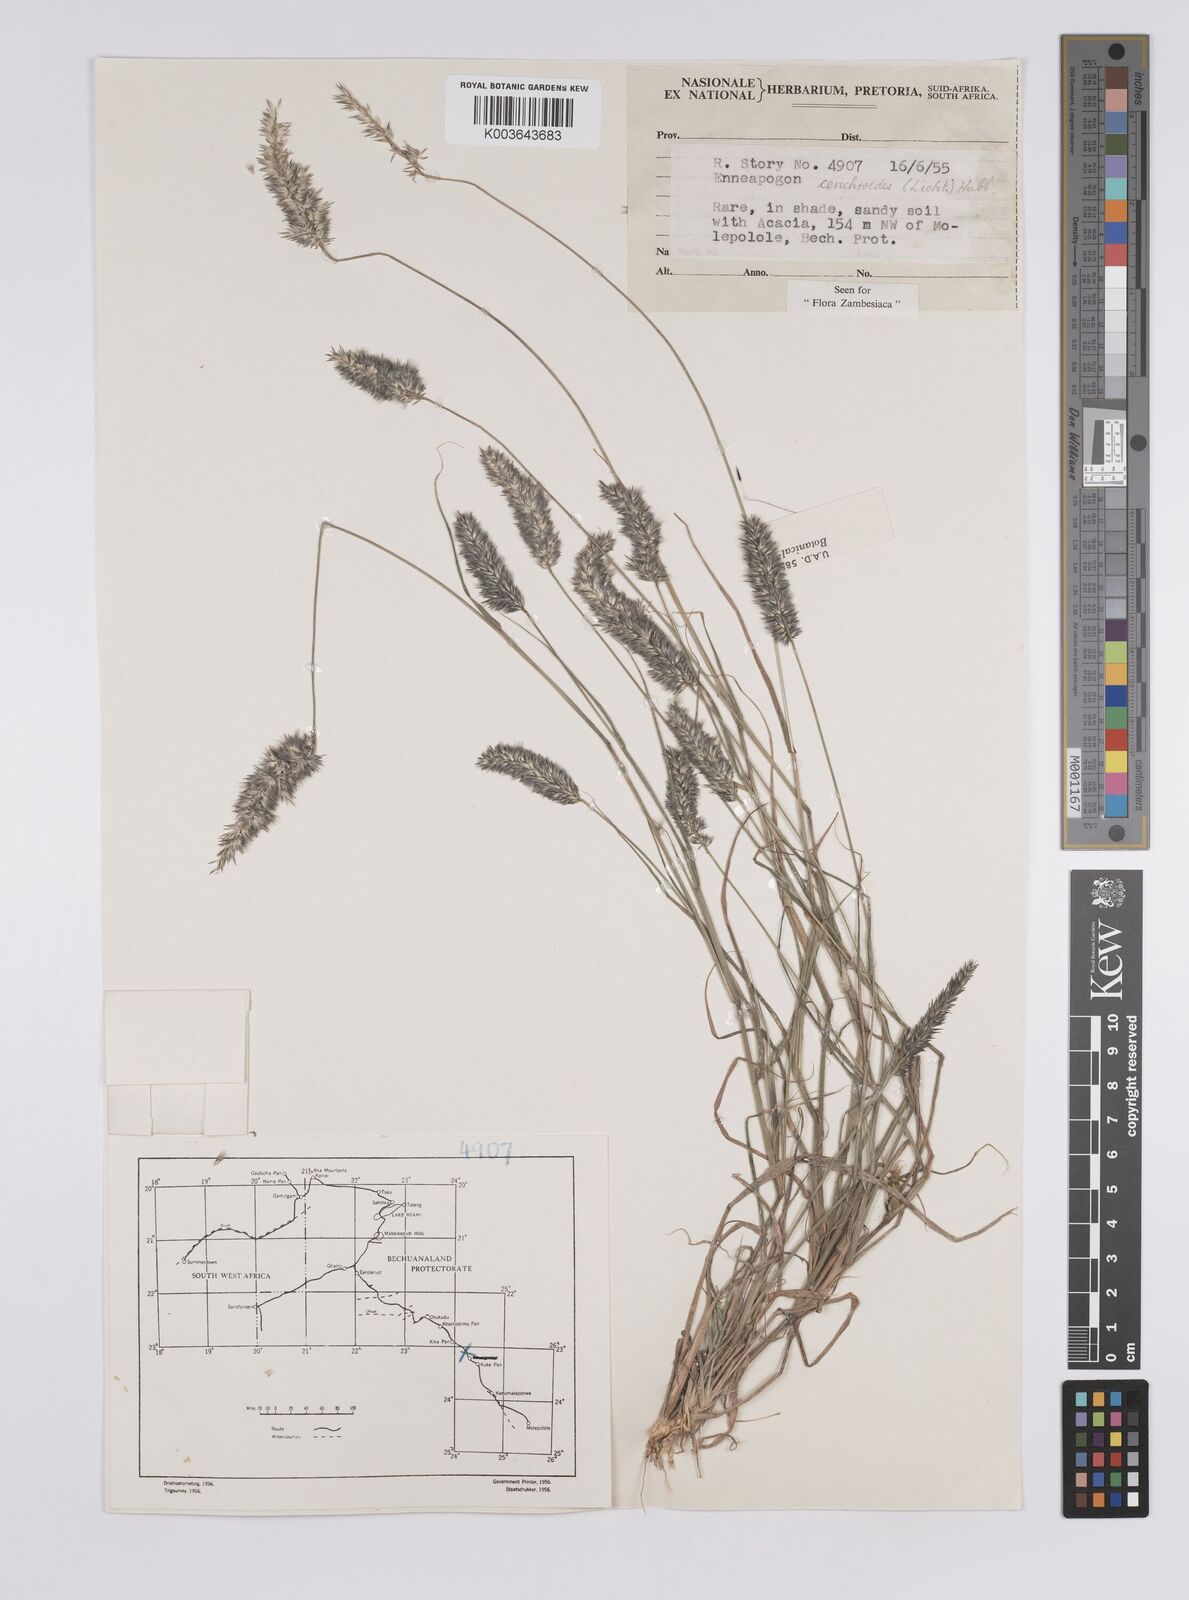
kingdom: Plantae
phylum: Tracheophyta
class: Liliopsida
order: Poales
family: Poaceae
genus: Enneapogon
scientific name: Enneapogon cenchroides
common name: Soft feather pappusgrass
